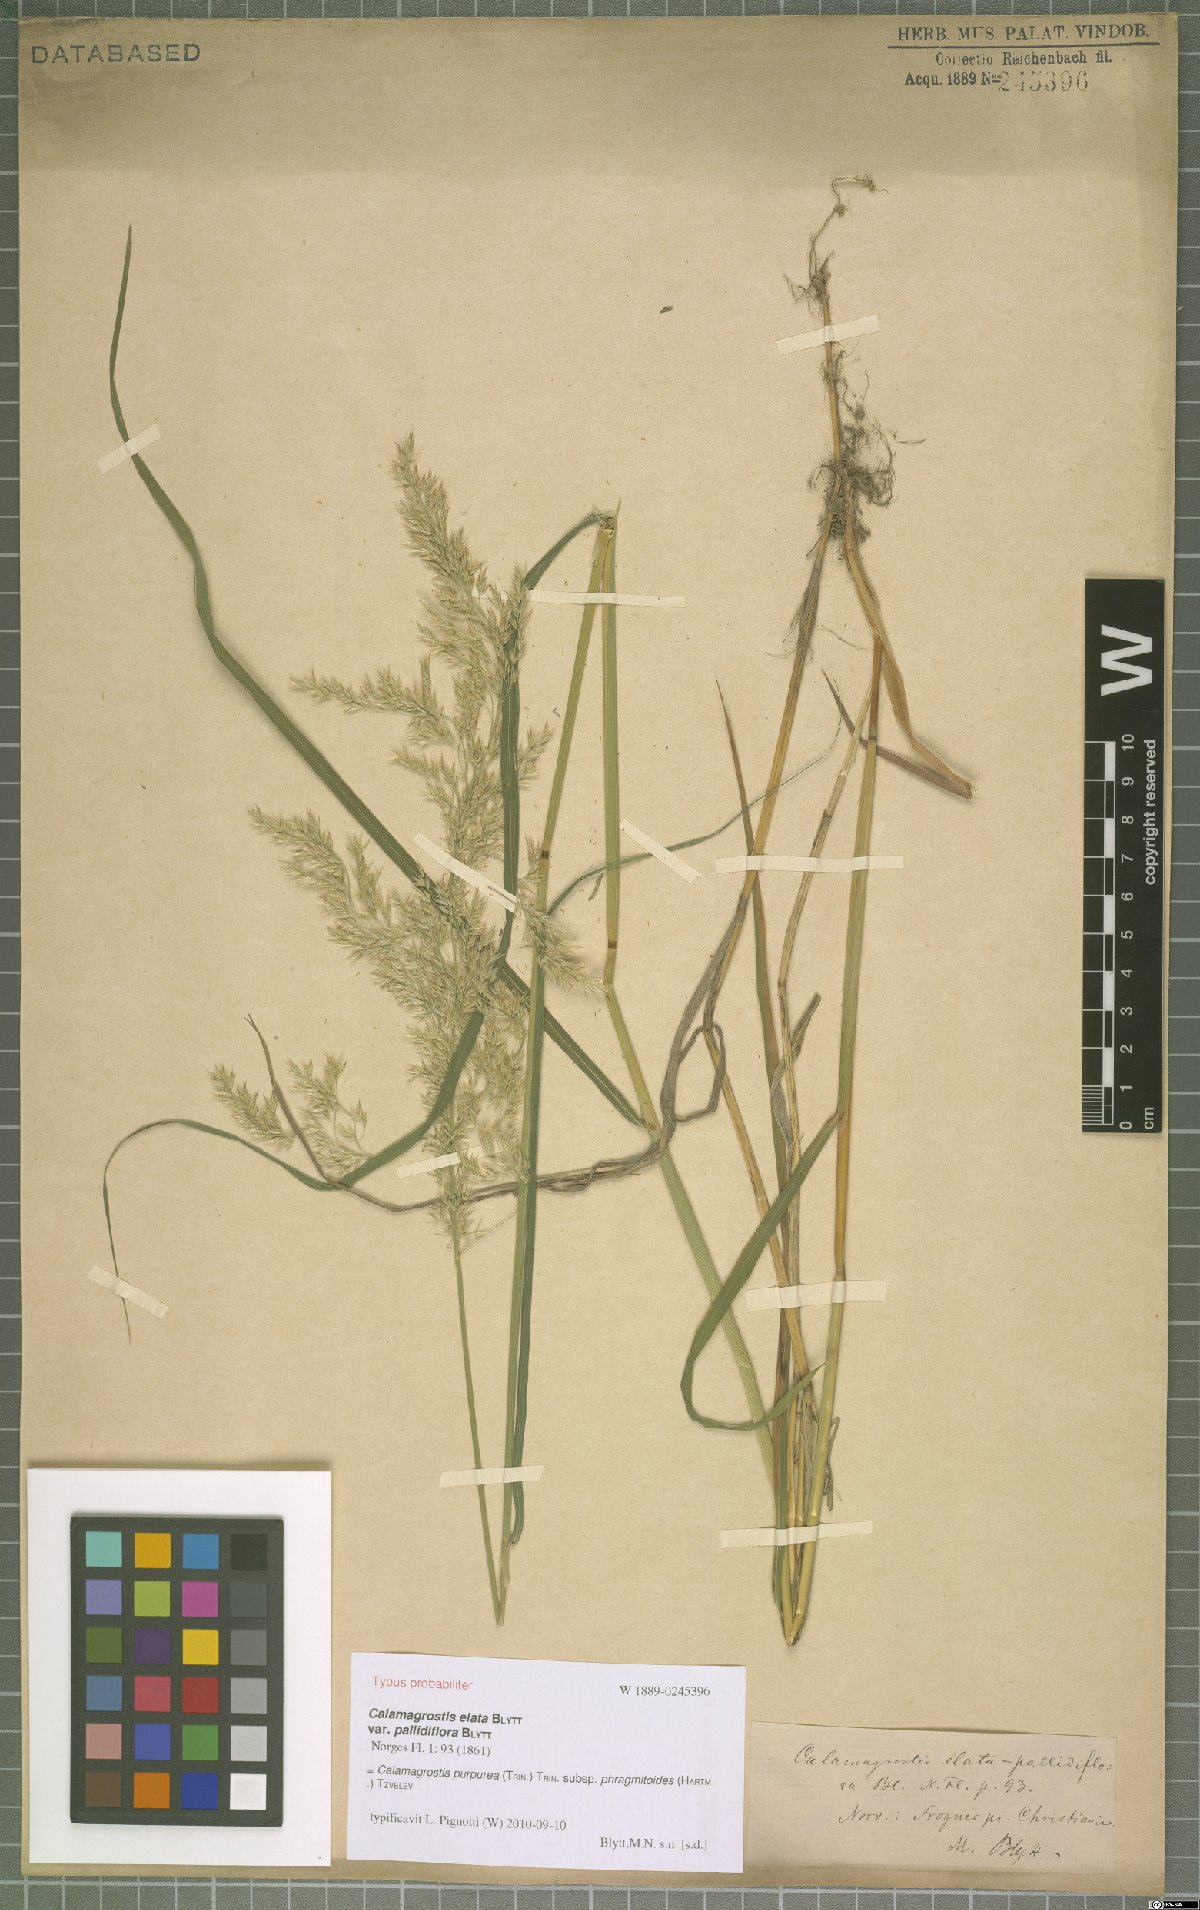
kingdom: Plantae
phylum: Tracheophyta
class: Liliopsida
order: Poales
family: Poaceae
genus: Calamagrostis
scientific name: Calamagrostis purpurea
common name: Scandinavian small-reed
